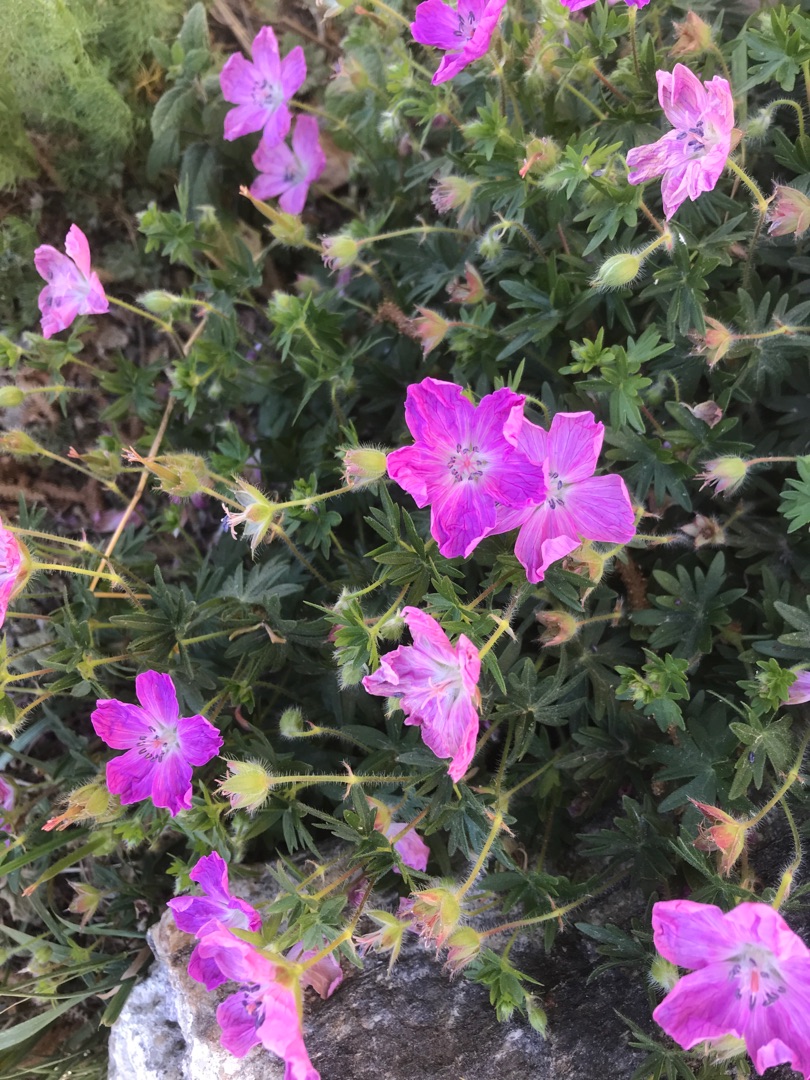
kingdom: Plantae
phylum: Tracheophyta
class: Magnoliopsida
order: Geraniales
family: Geraniaceae
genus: Geranium
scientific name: Geranium sanguineum
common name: Blodrød storkenæb
